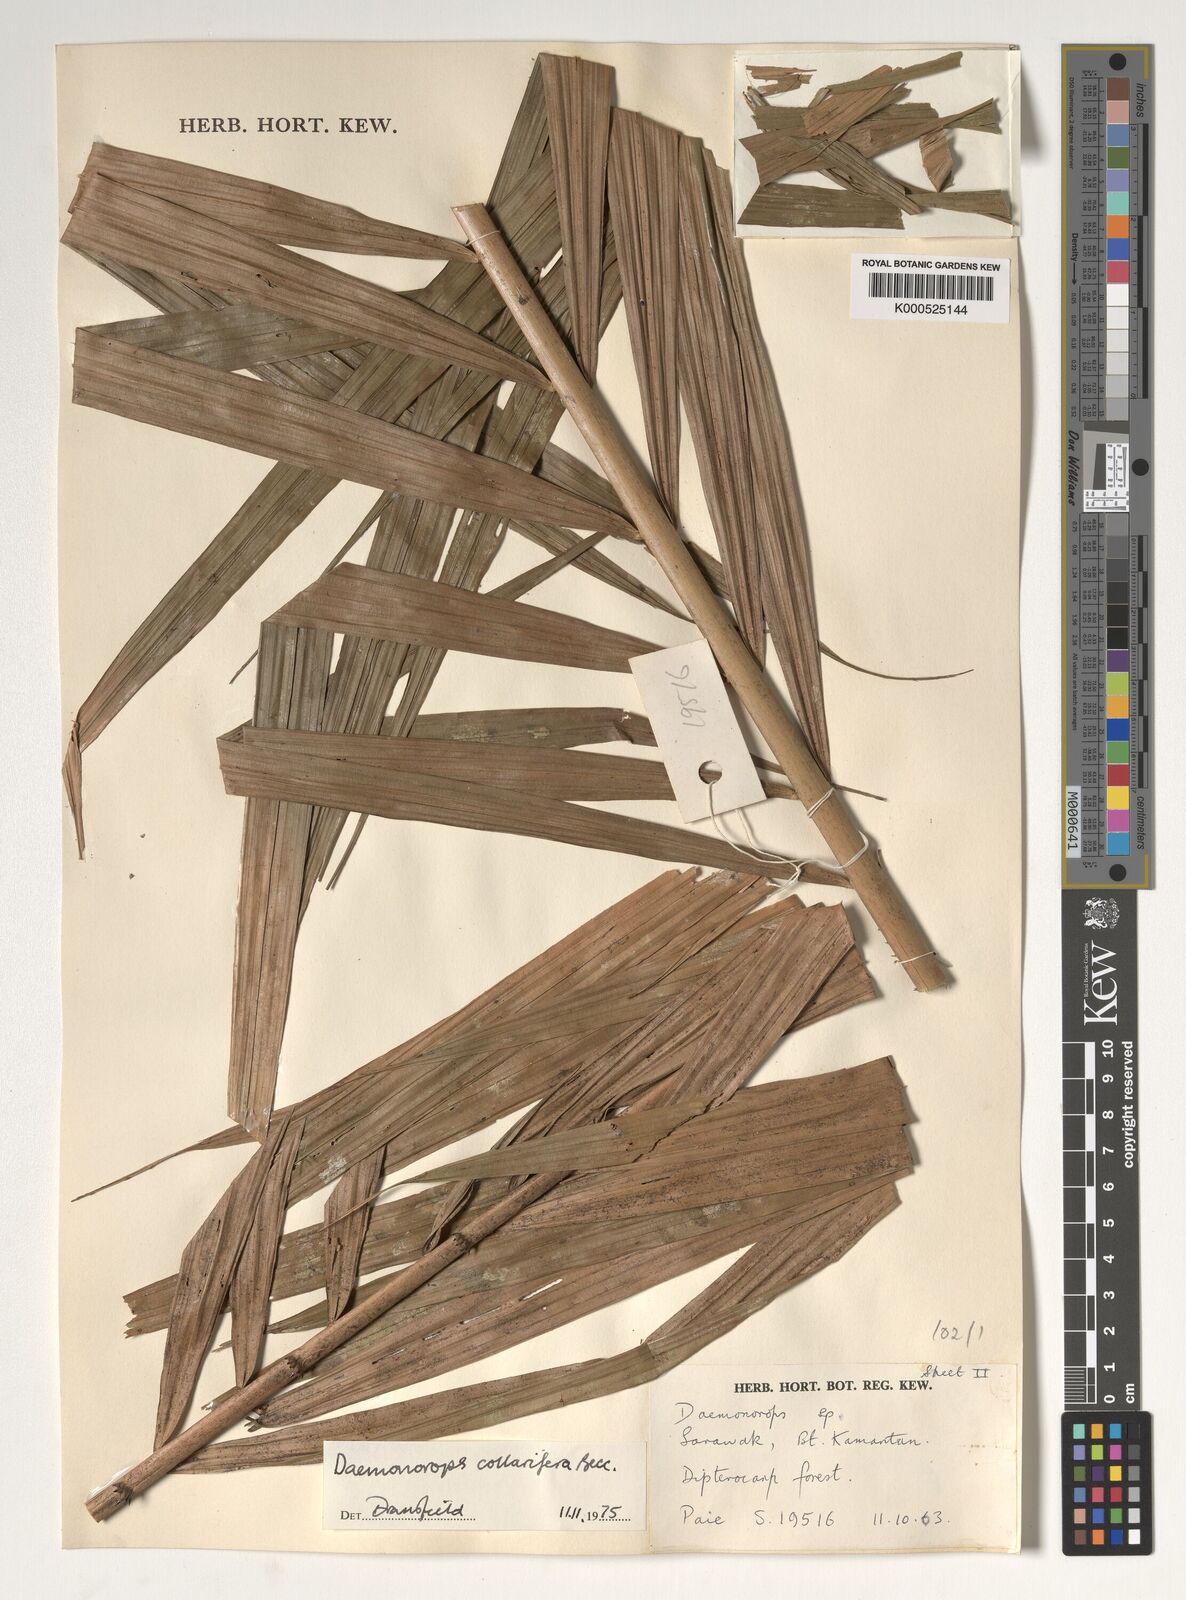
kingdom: Plantae
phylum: Tracheophyta
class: Liliopsida
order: Arecales
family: Arecaceae
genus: Calamus
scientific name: Calamus geniculatus
